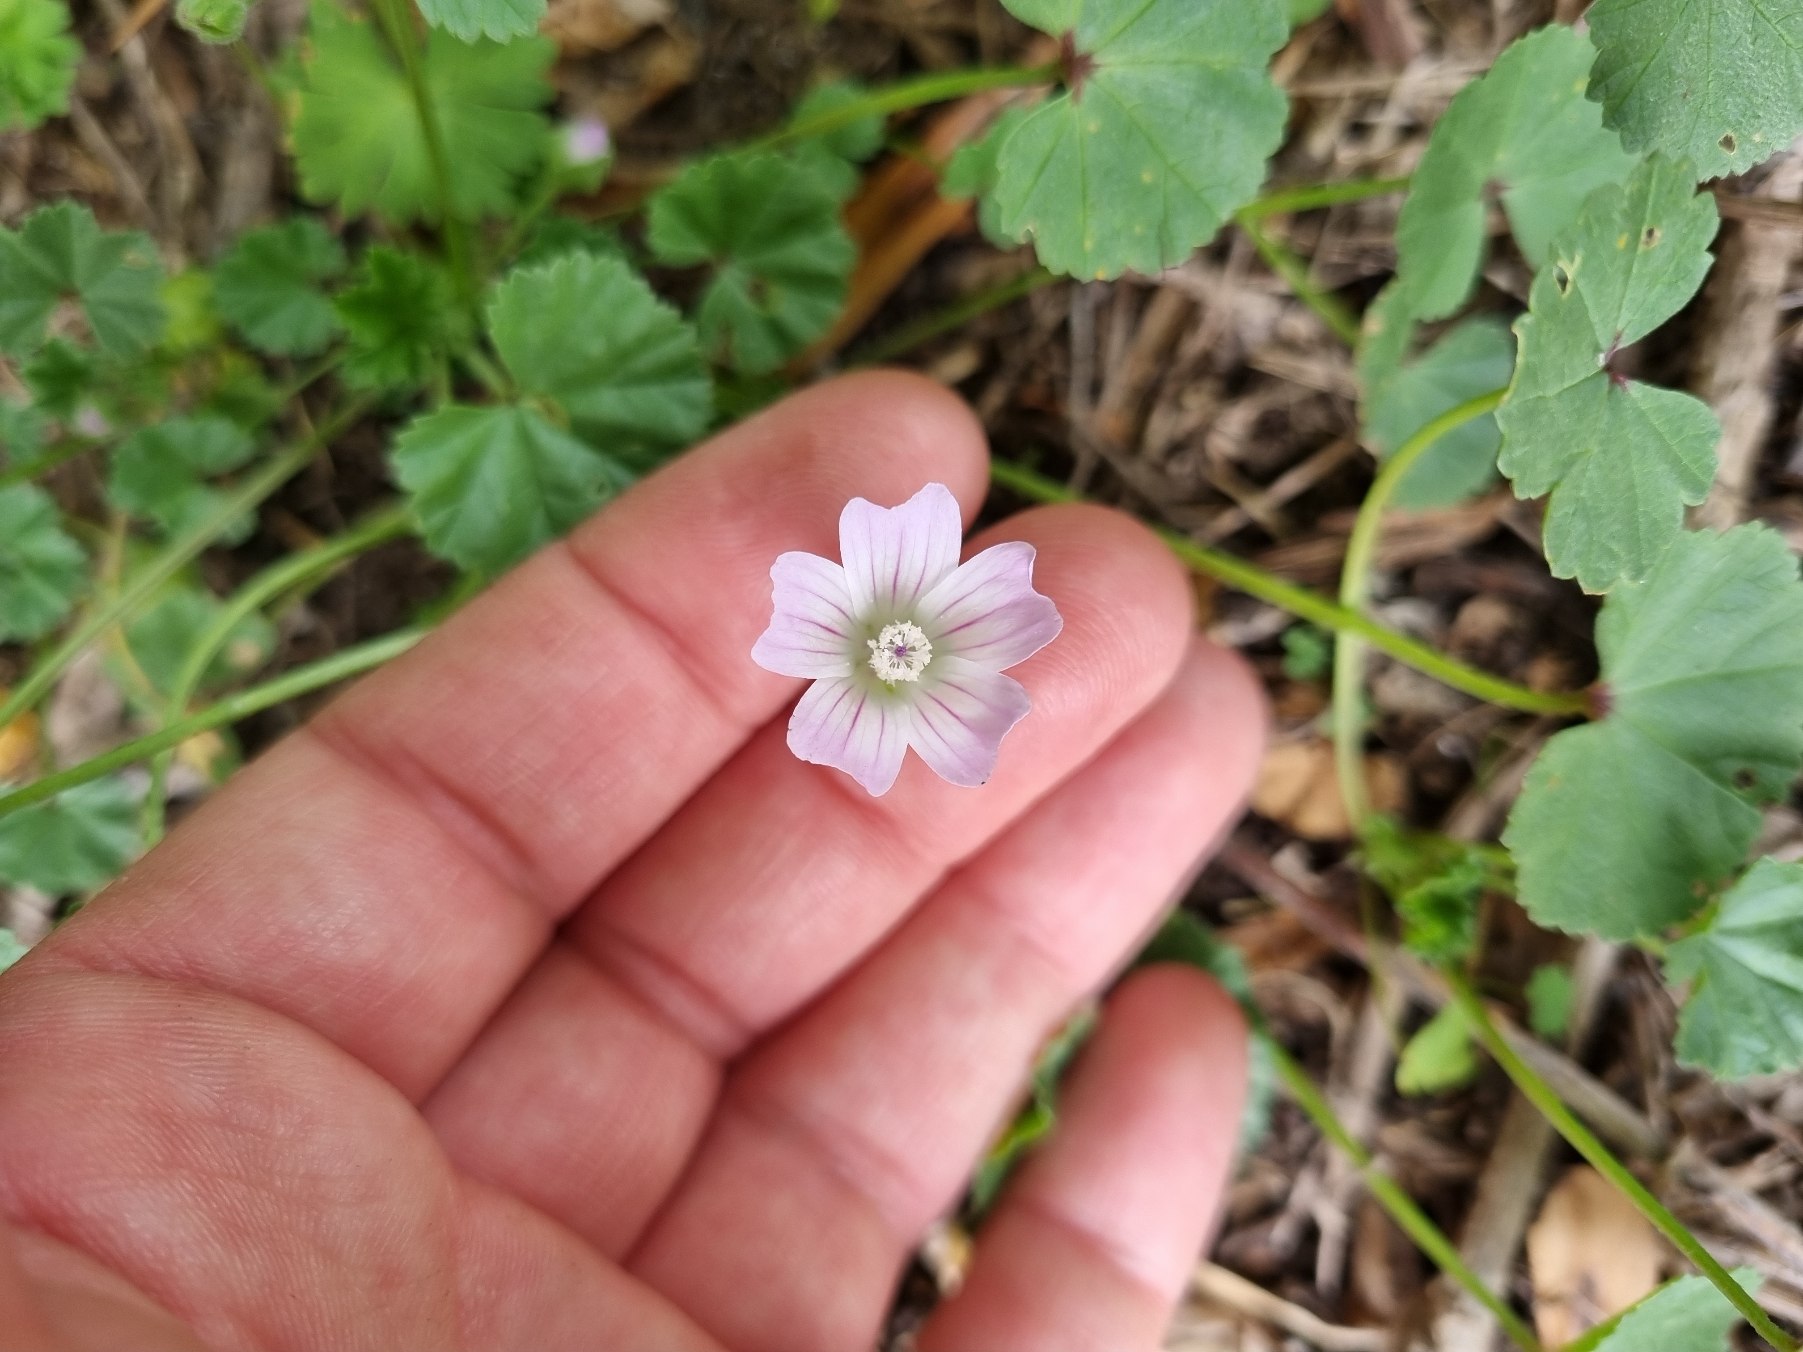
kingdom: Plantae
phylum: Tracheophyta
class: Magnoliopsida
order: Malvales
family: Malvaceae
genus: Malva
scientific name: Malva neglecta
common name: Rundbladet katost
